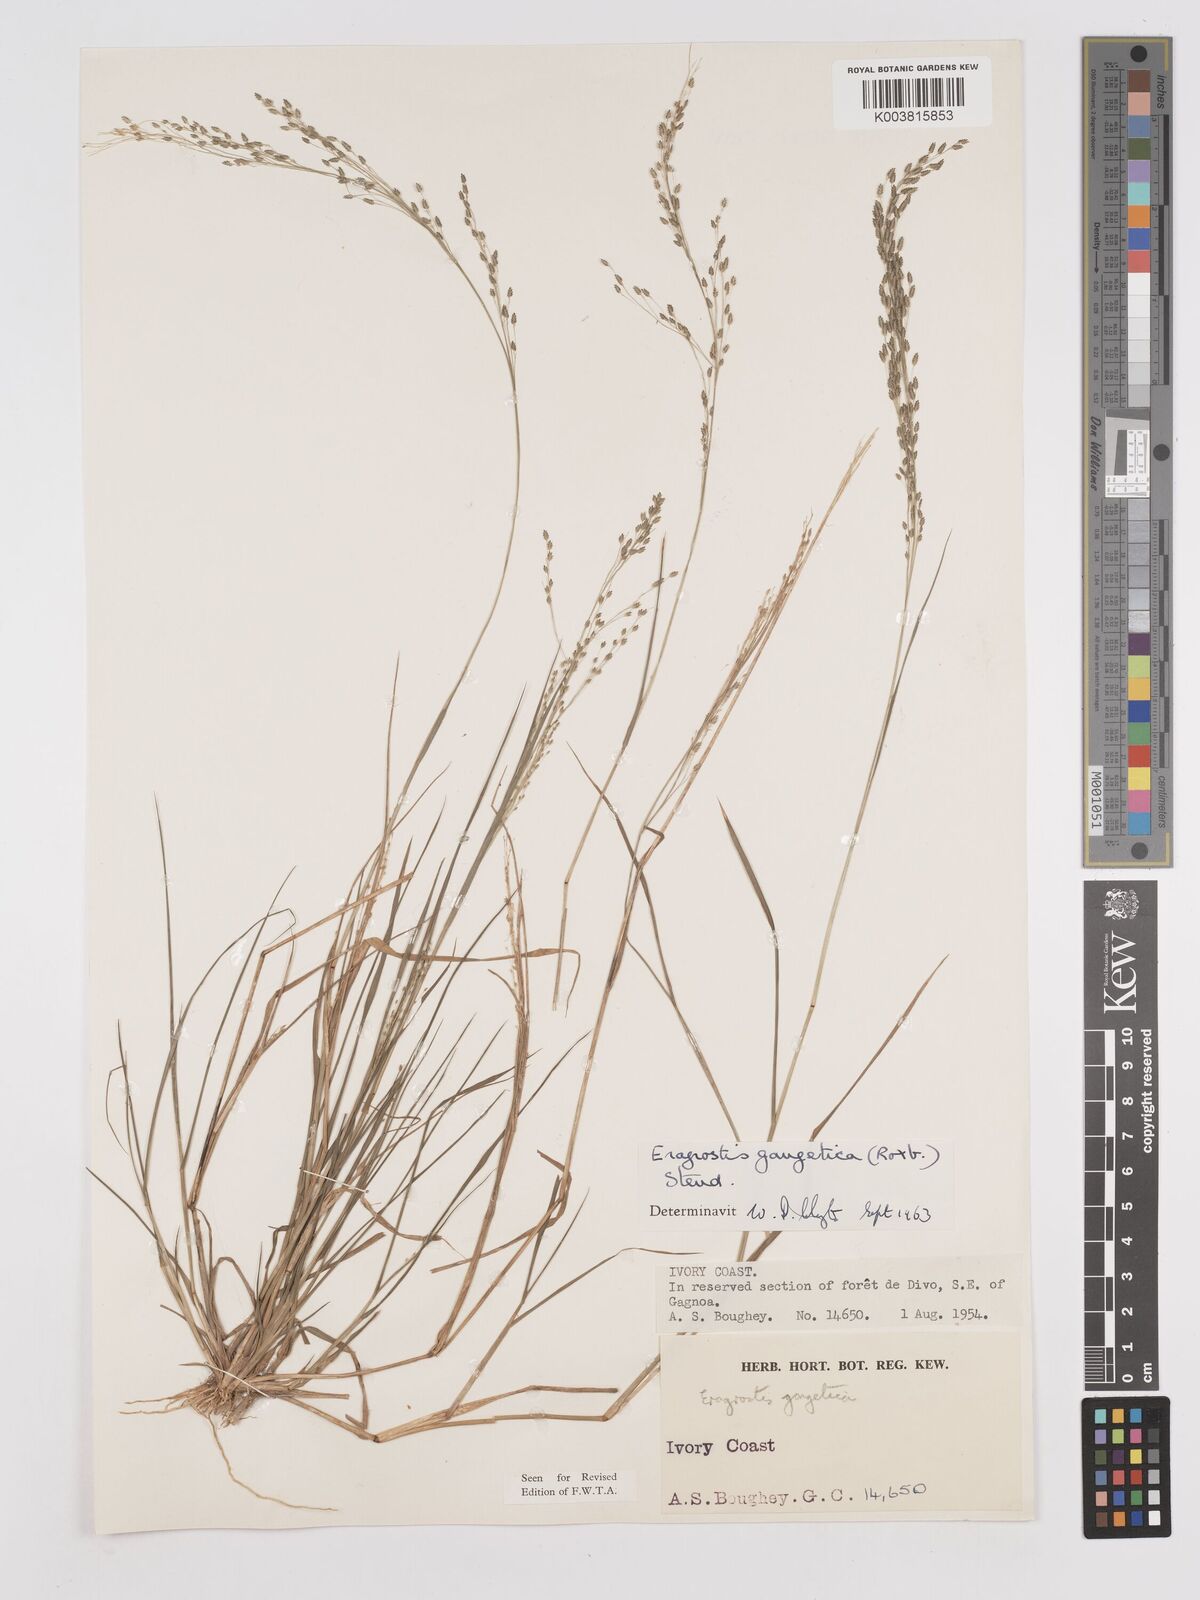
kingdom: Plantae
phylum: Tracheophyta
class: Liliopsida
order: Poales
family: Poaceae
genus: Eragrostis
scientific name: Eragrostis gangetica
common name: Slimflower lovegrass
